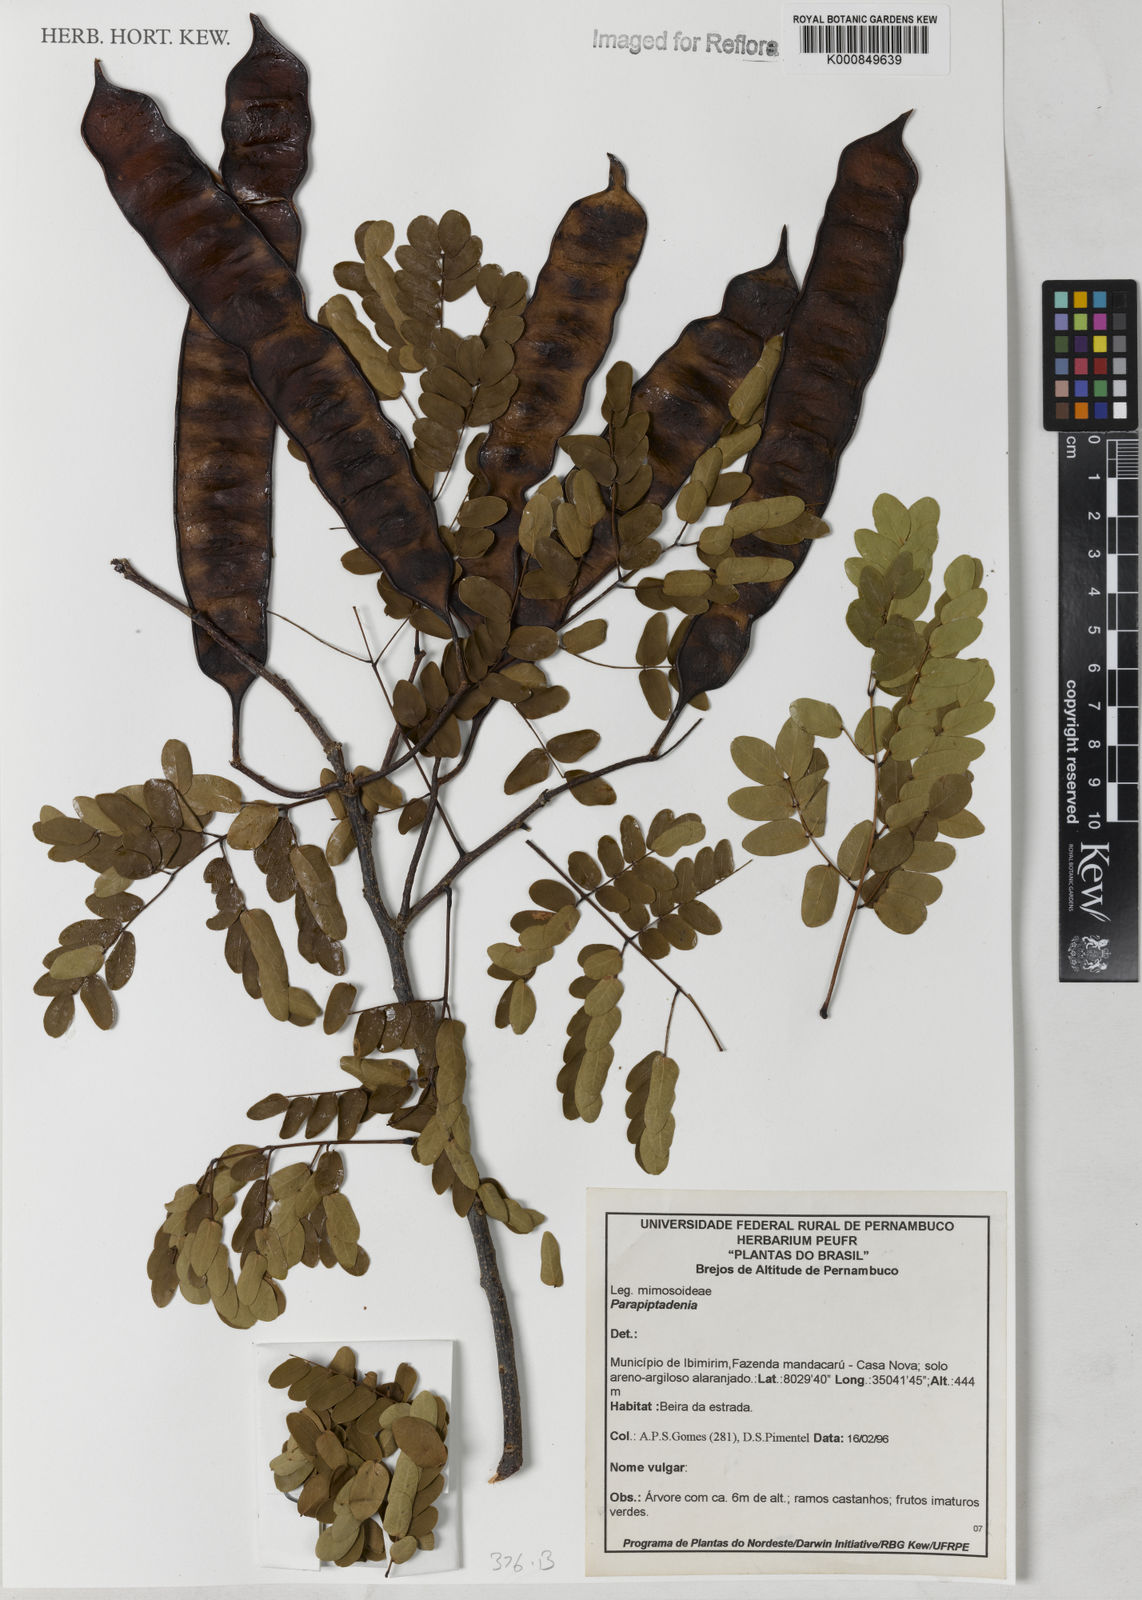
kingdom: Plantae
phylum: Tracheophyta
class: Magnoliopsida
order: Fabales
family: Fabaceae
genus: Parapiptadenia
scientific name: Parapiptadenia
